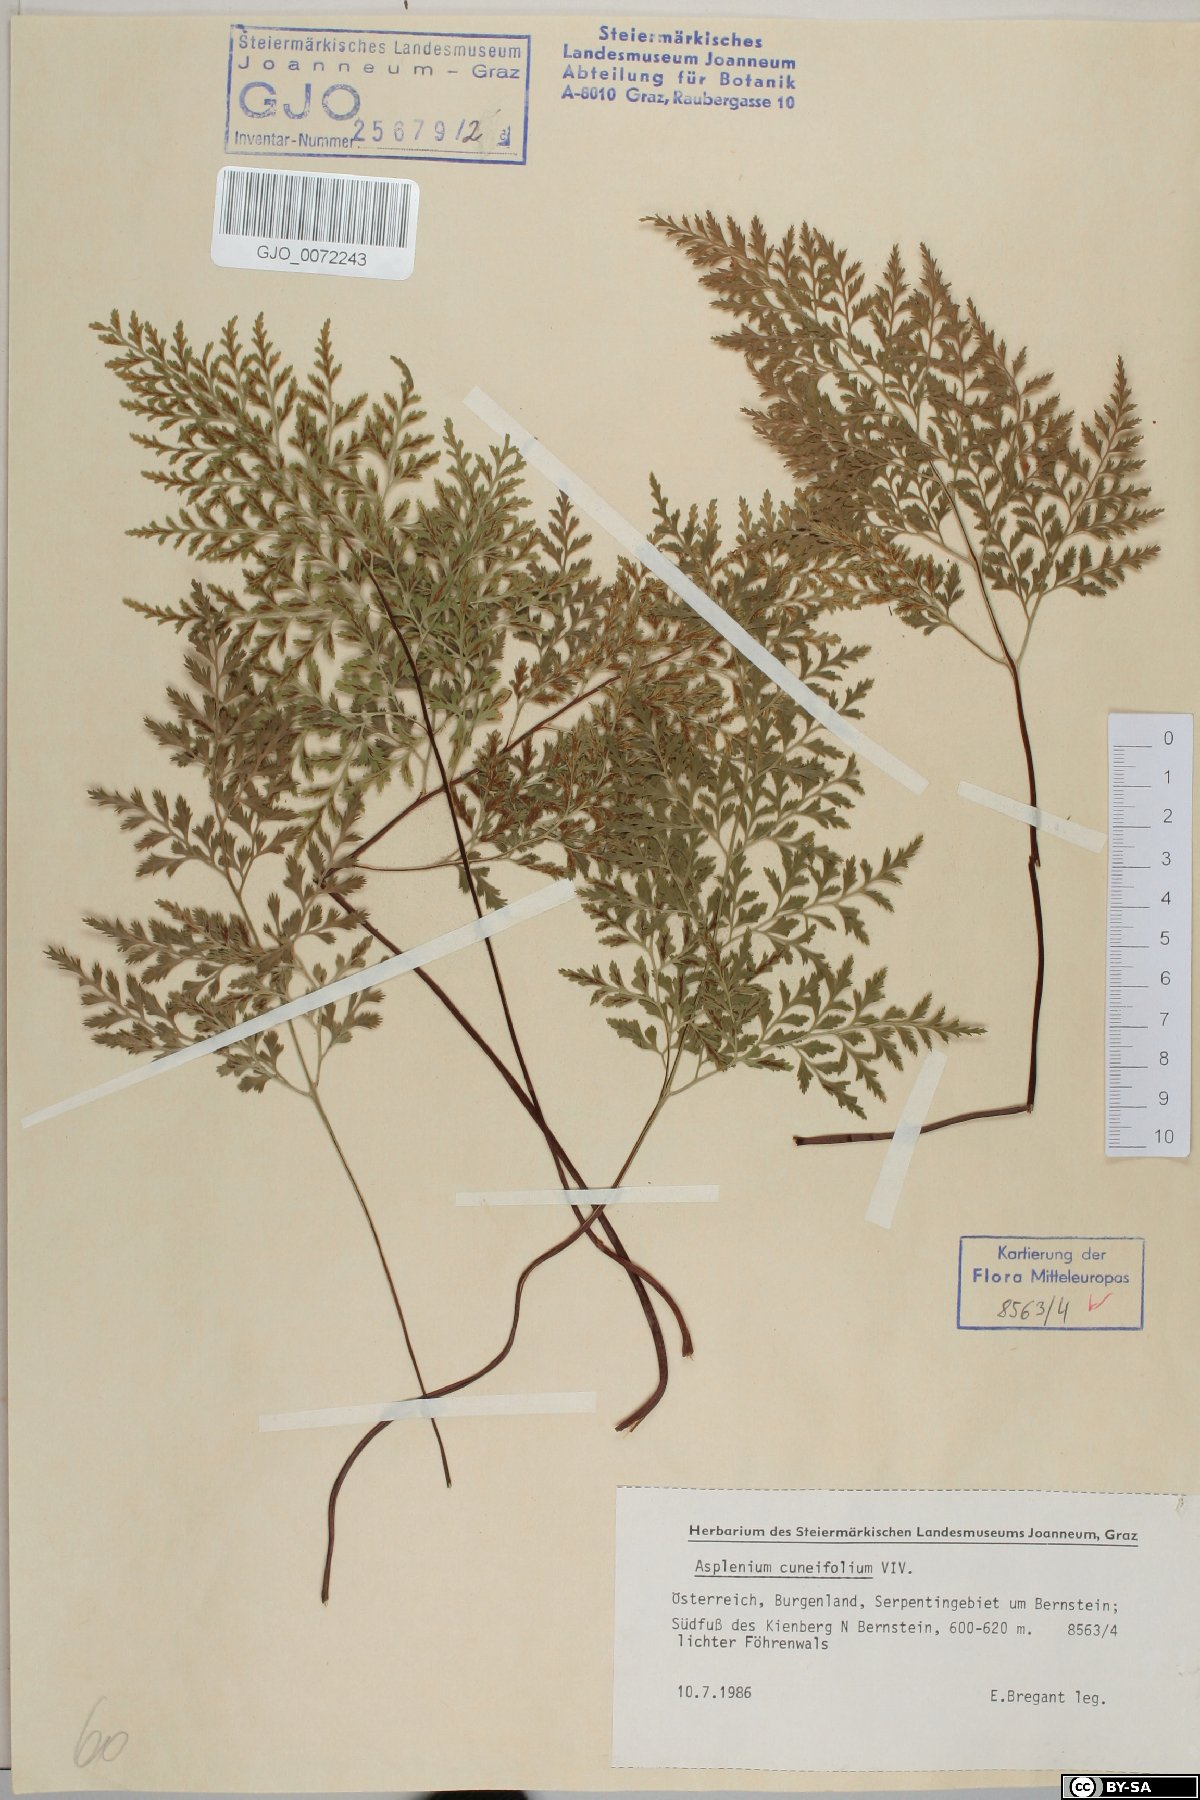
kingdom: Plantae
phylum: Tracheophyta
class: Polypodiopsida
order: Polypodiales
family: Aspleniaceae
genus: Asplenium
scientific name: Asplenium cuneifolium
